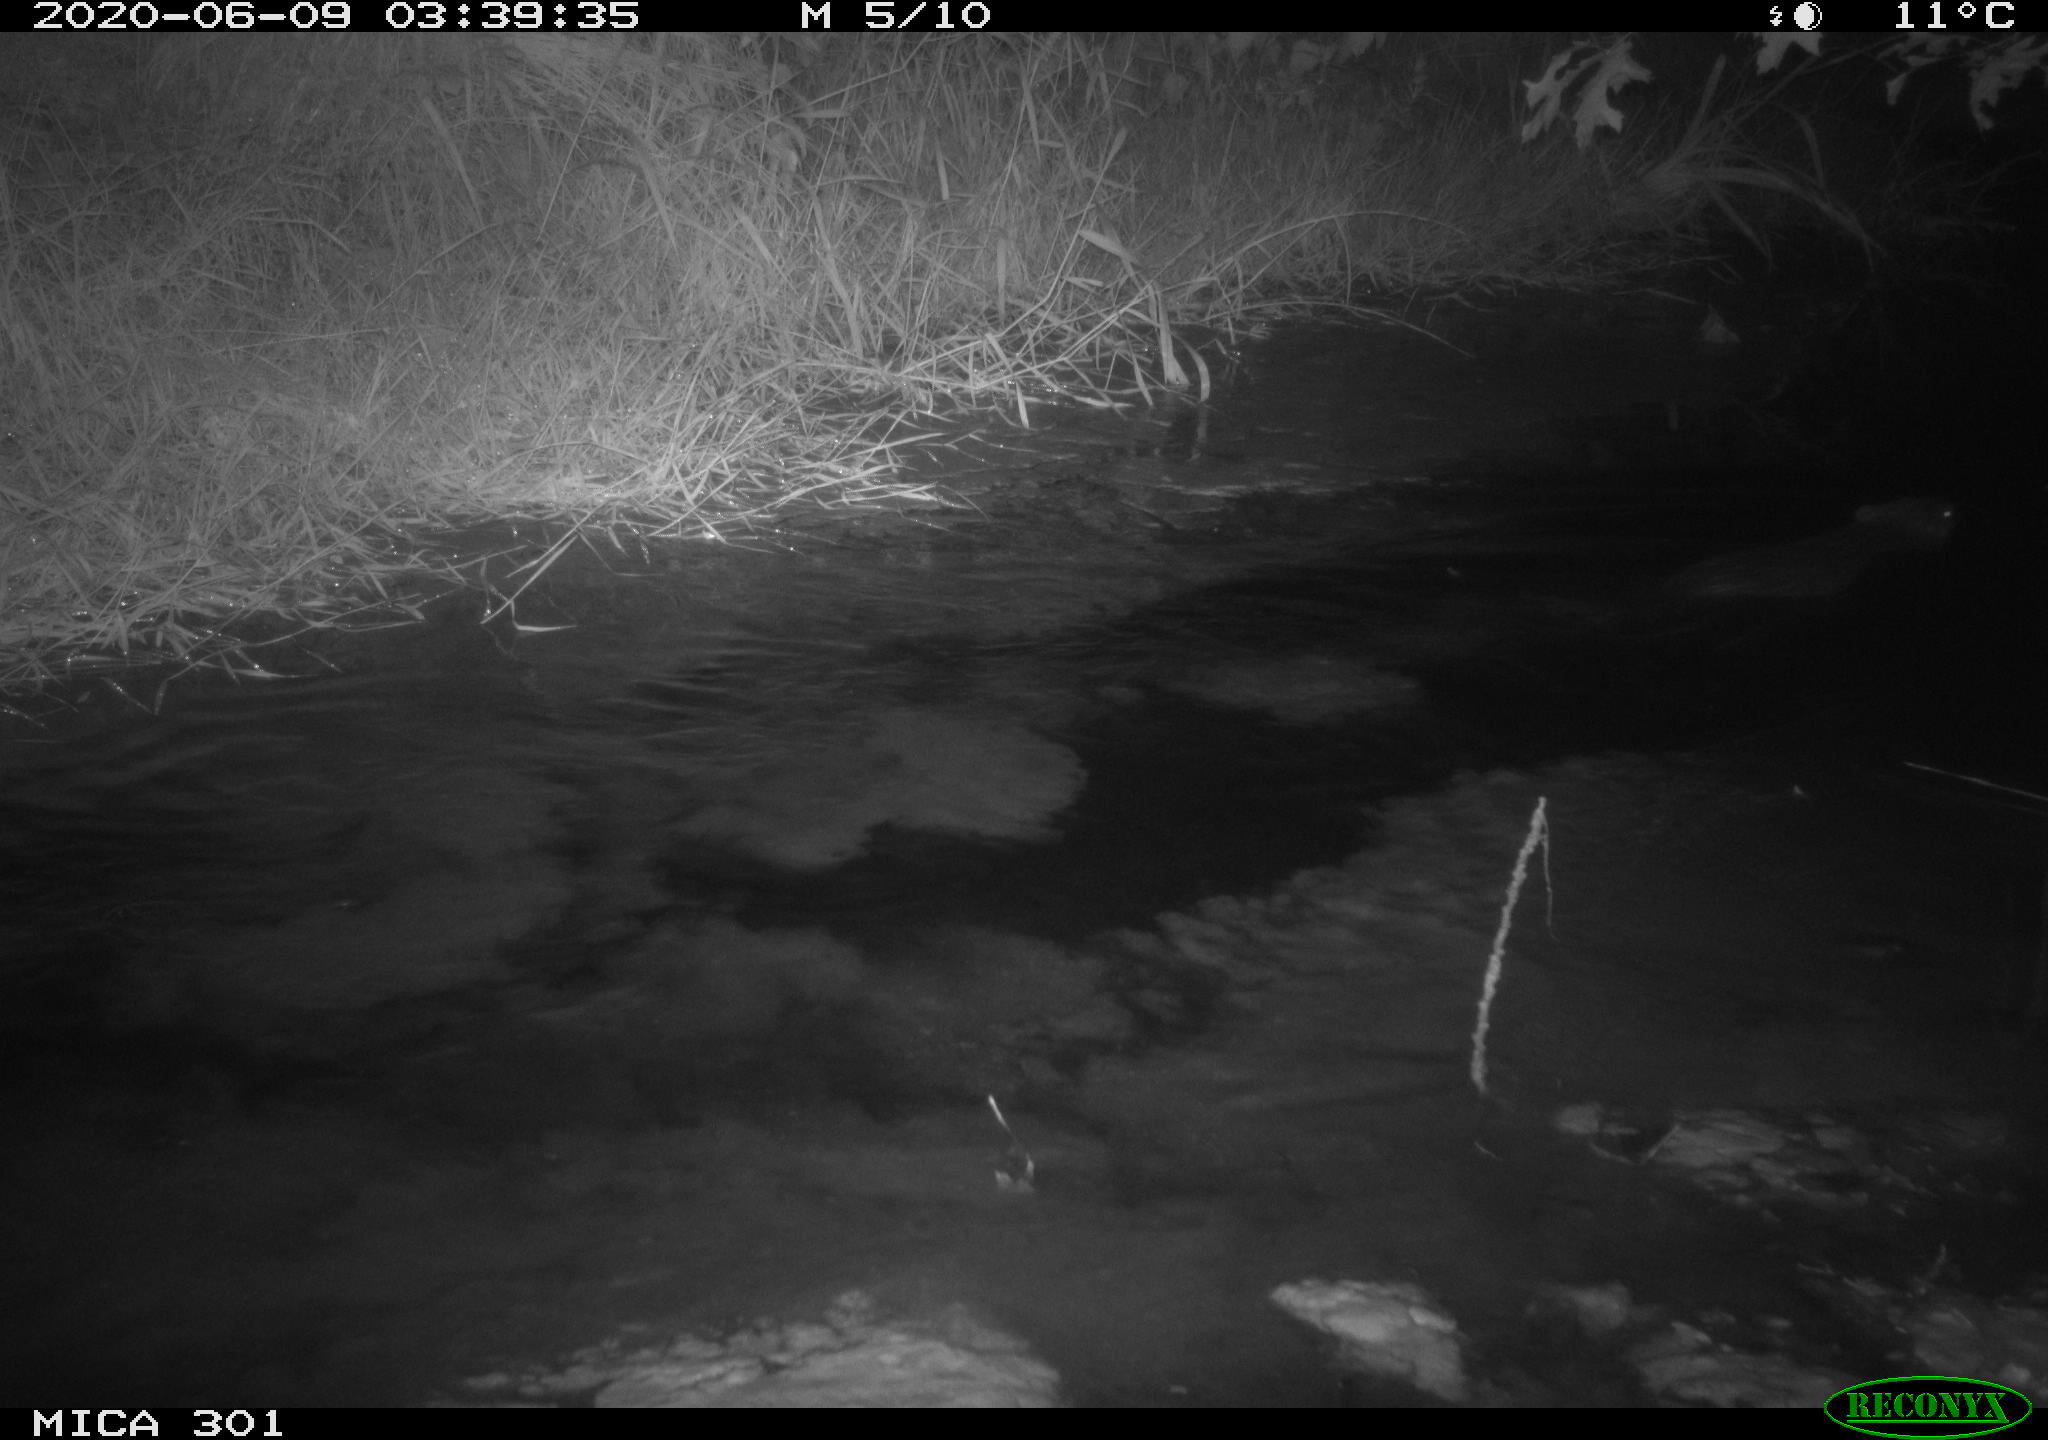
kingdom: Animalia
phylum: Chordata
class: Mammalia
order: Rodentia
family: Castoridae
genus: Castor
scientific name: Castor fiber
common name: Eurasian beaver
